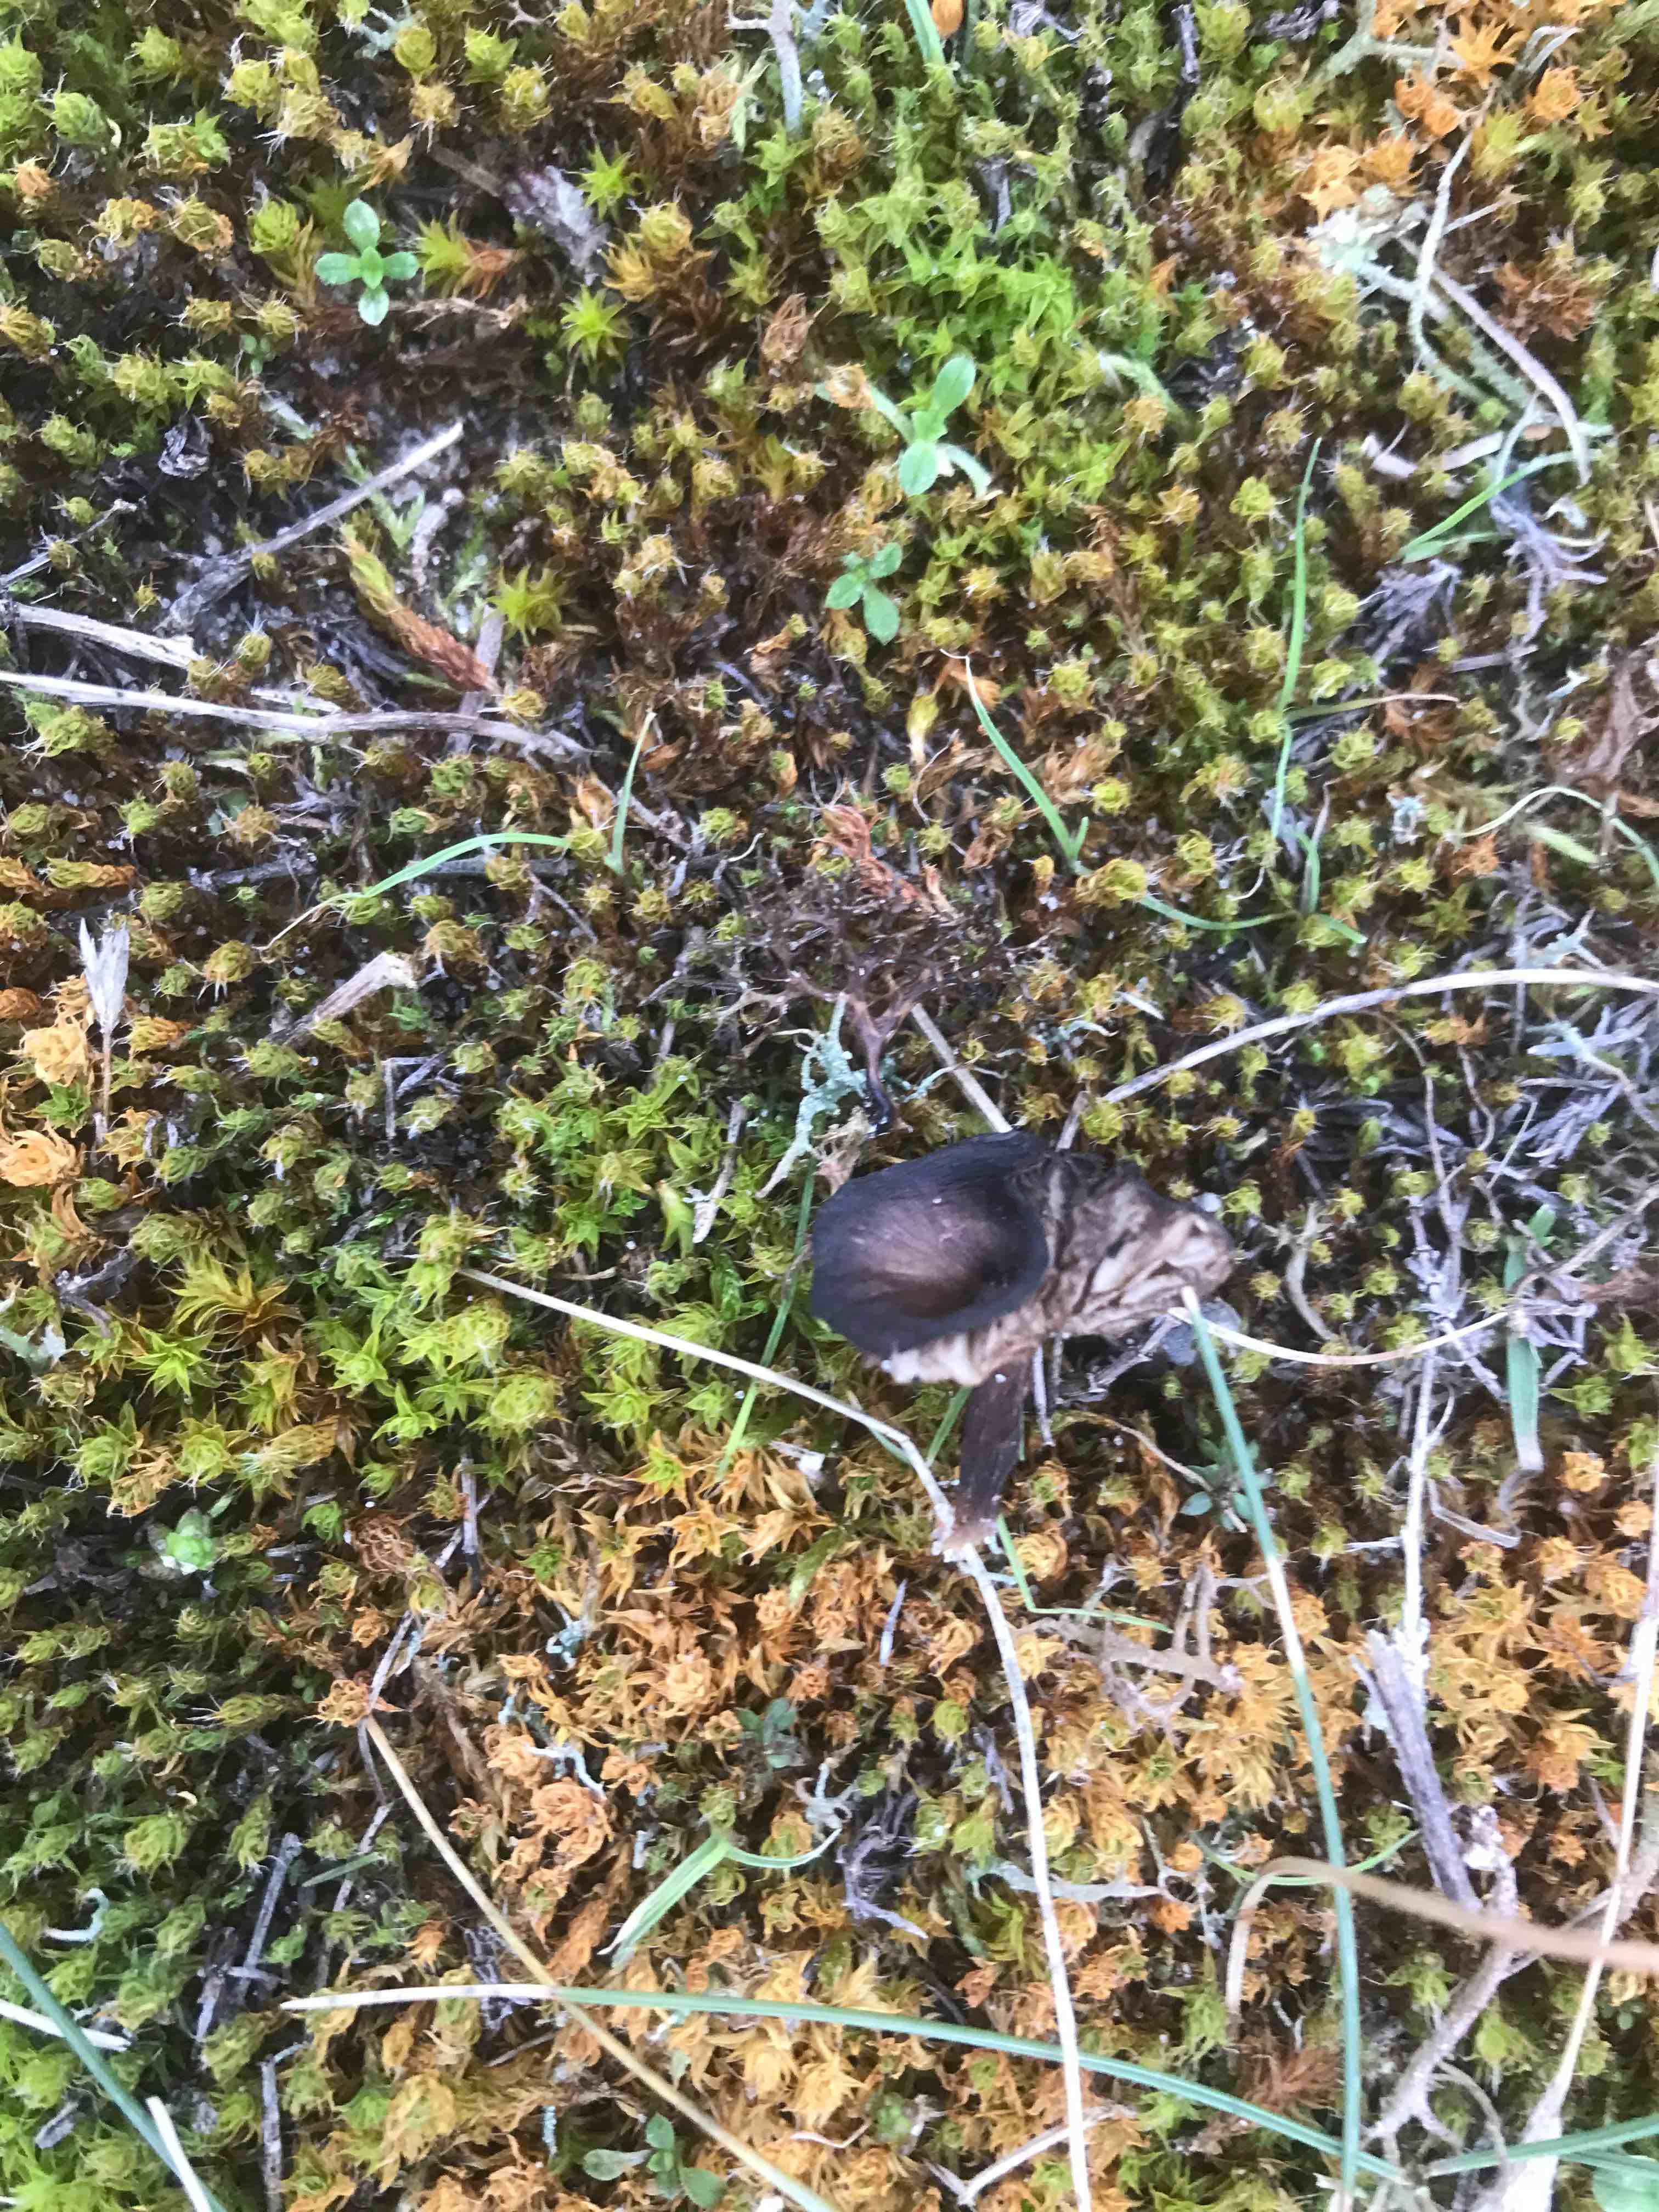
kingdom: Fungi
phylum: Basidiomycota
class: Agaricomycetes
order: Agaricales
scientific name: Agaricales
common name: champignonordenen
